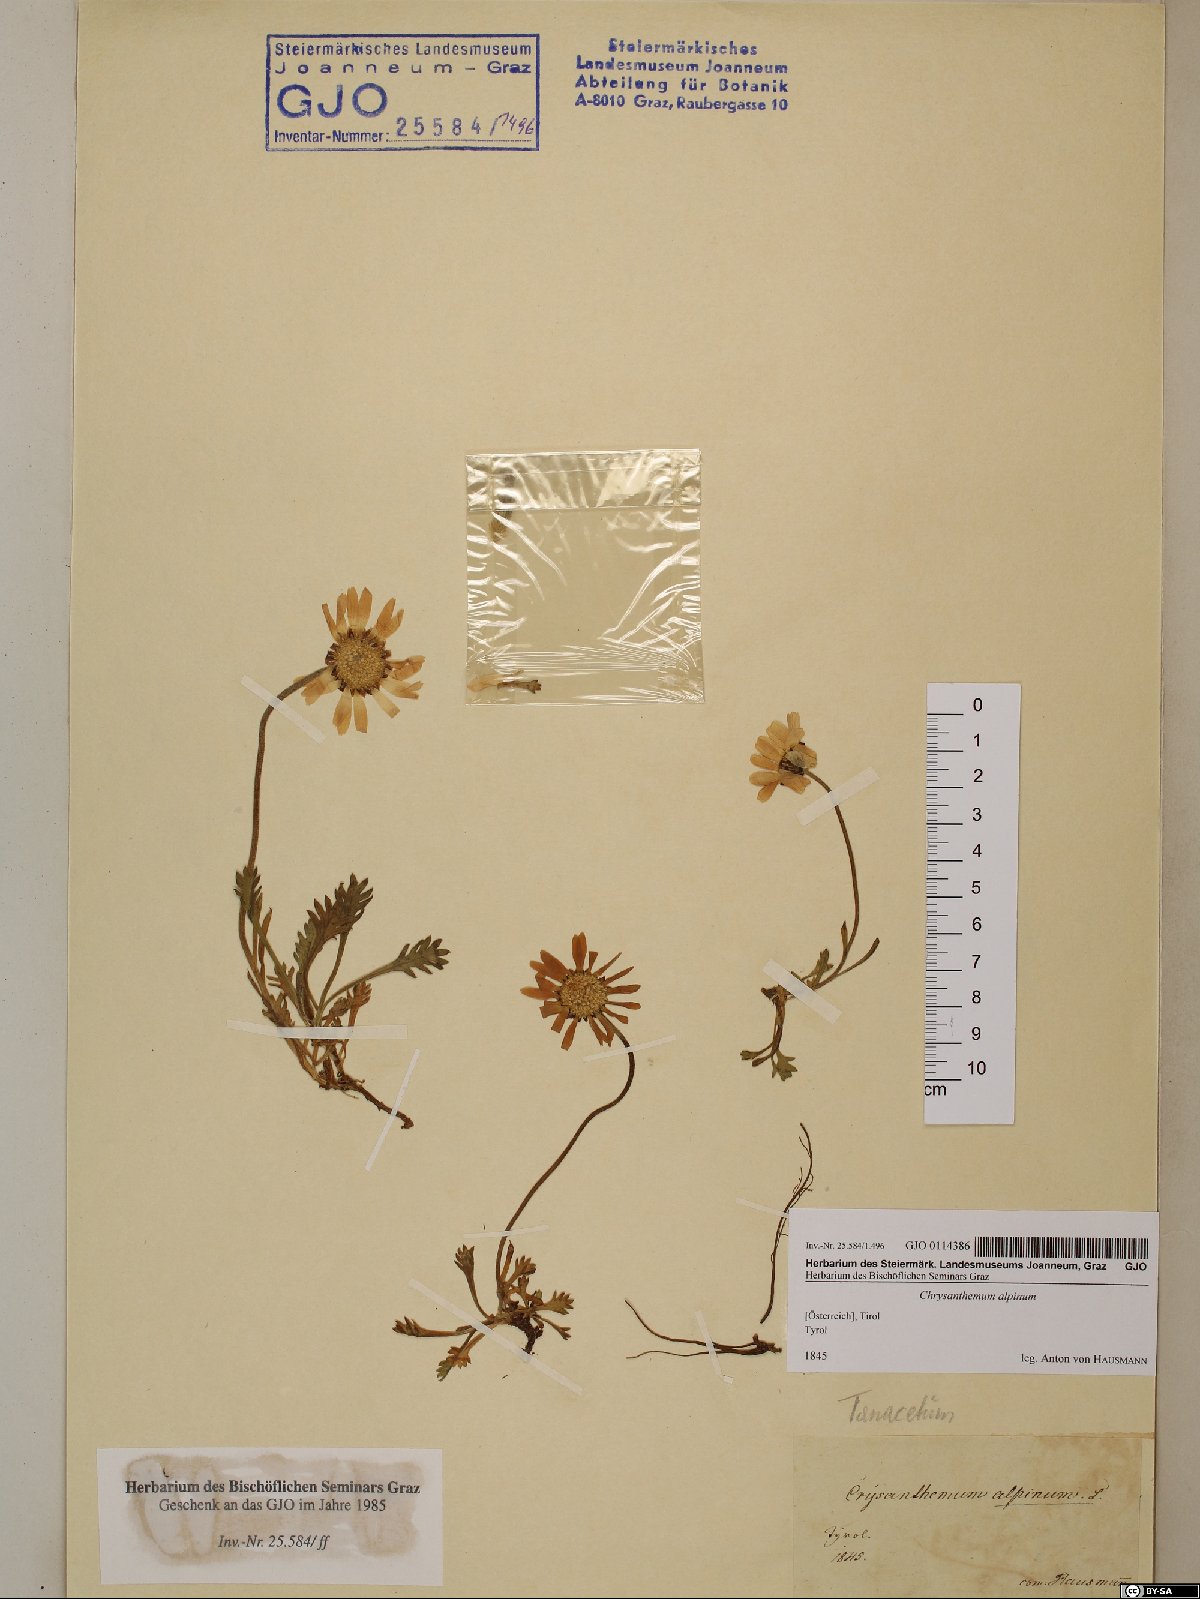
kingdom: Plantae
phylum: Tracheophyta
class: Magnoliopsida
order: Asterales
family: Asteraceae
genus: Leucanthemopsis
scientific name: Leucanthemopsis alpina
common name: Alpine moon daisy
